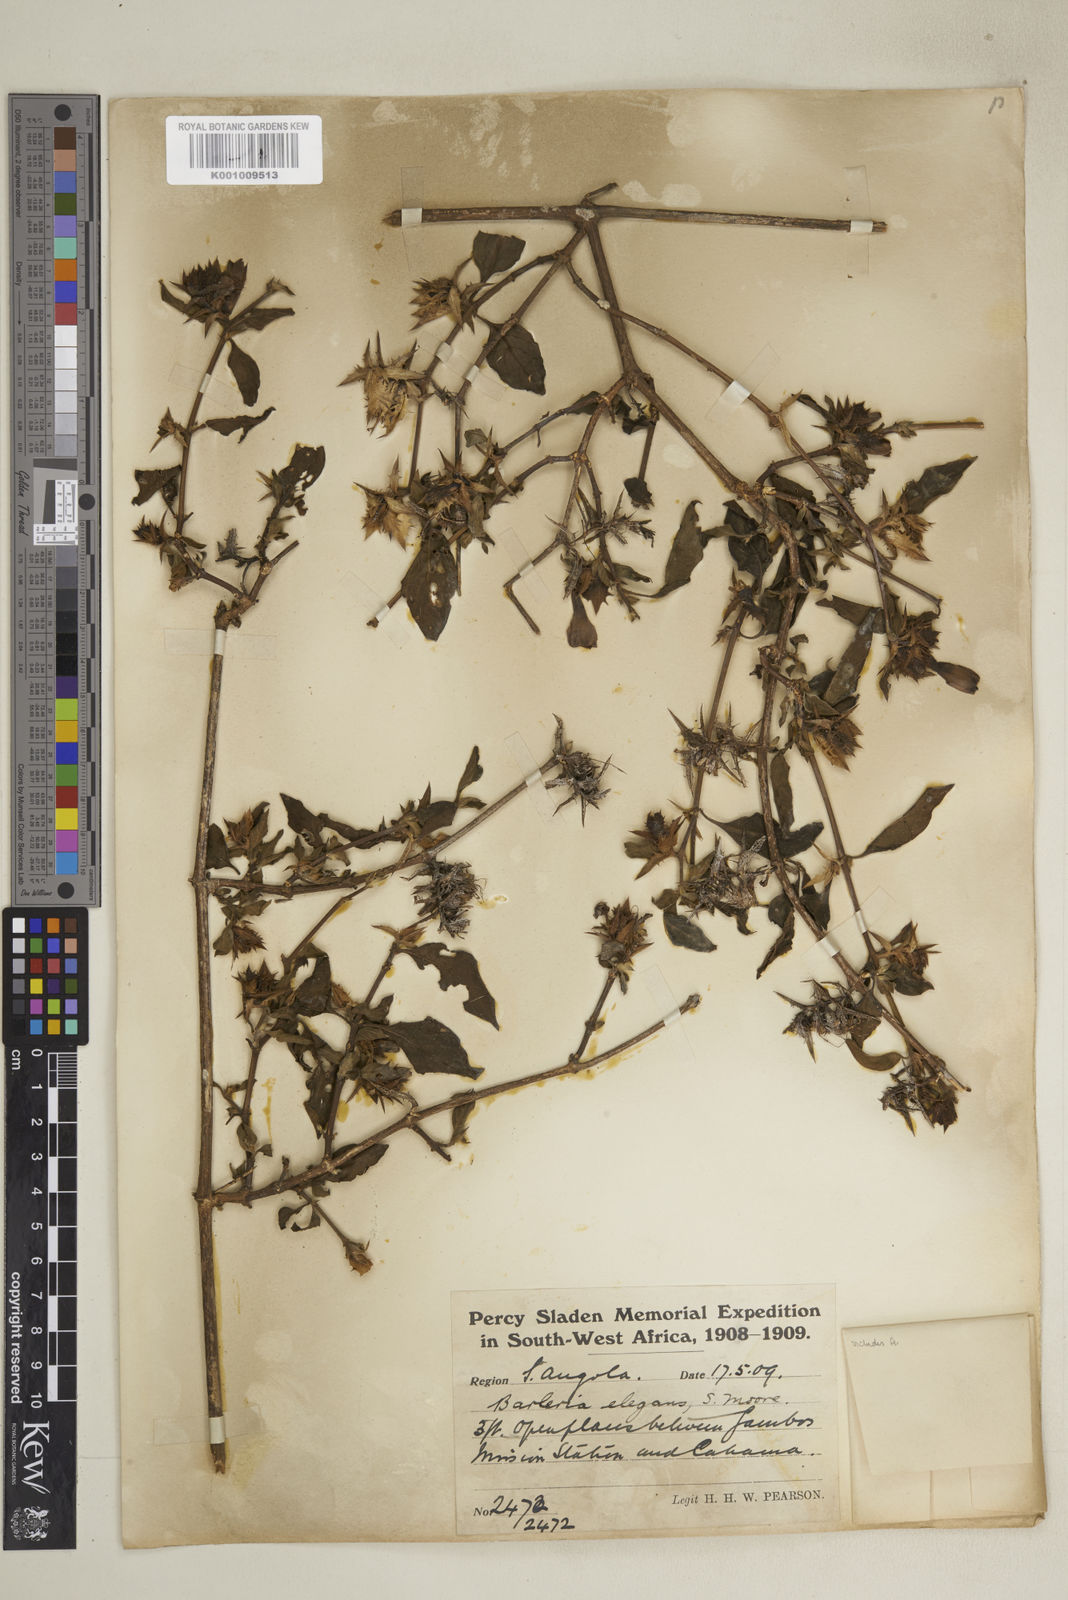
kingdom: Plantae
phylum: Tracheophyta
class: Magnoliopsida
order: Lamiales
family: Acanthaceae
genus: Barleria
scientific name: Barleria
